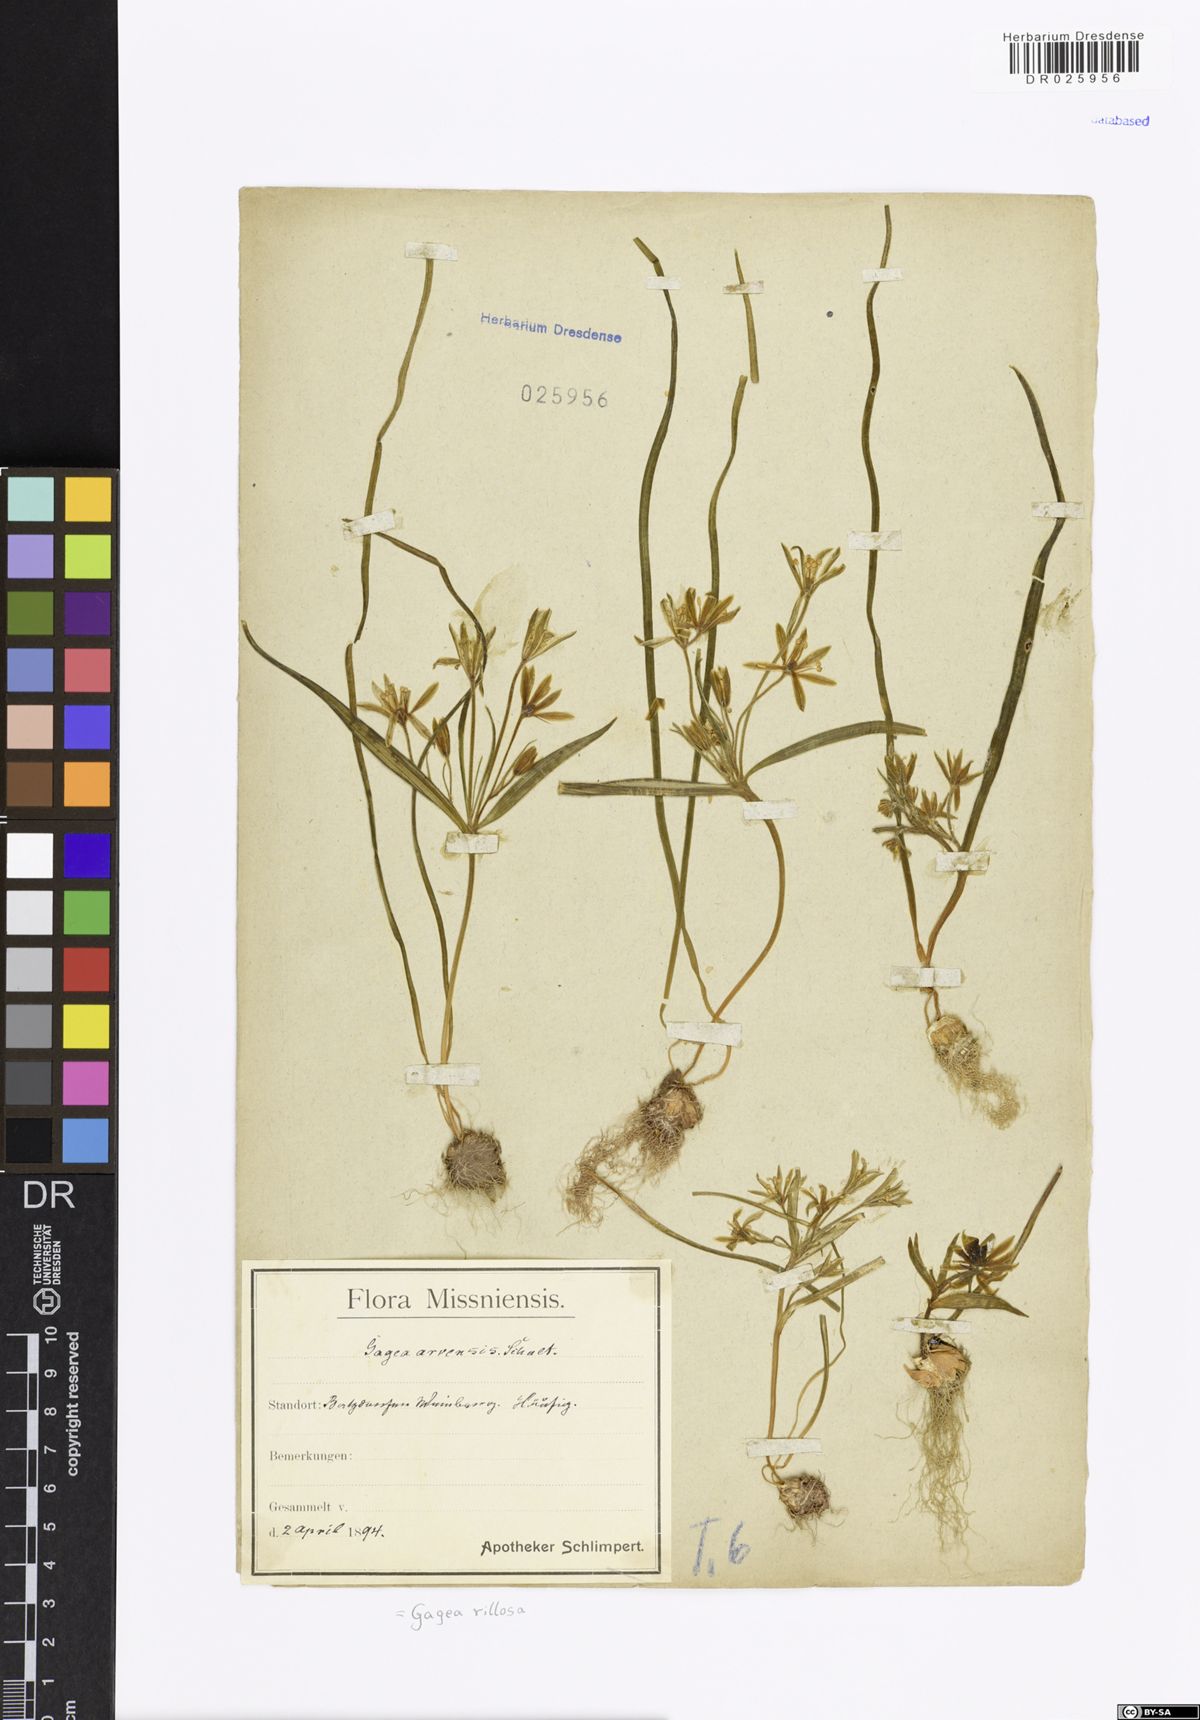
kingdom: Plantae
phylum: Tracheophyta
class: Liliopsida
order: Liliales
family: Liliaceae
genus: Gagea
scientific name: Gagea villosa
